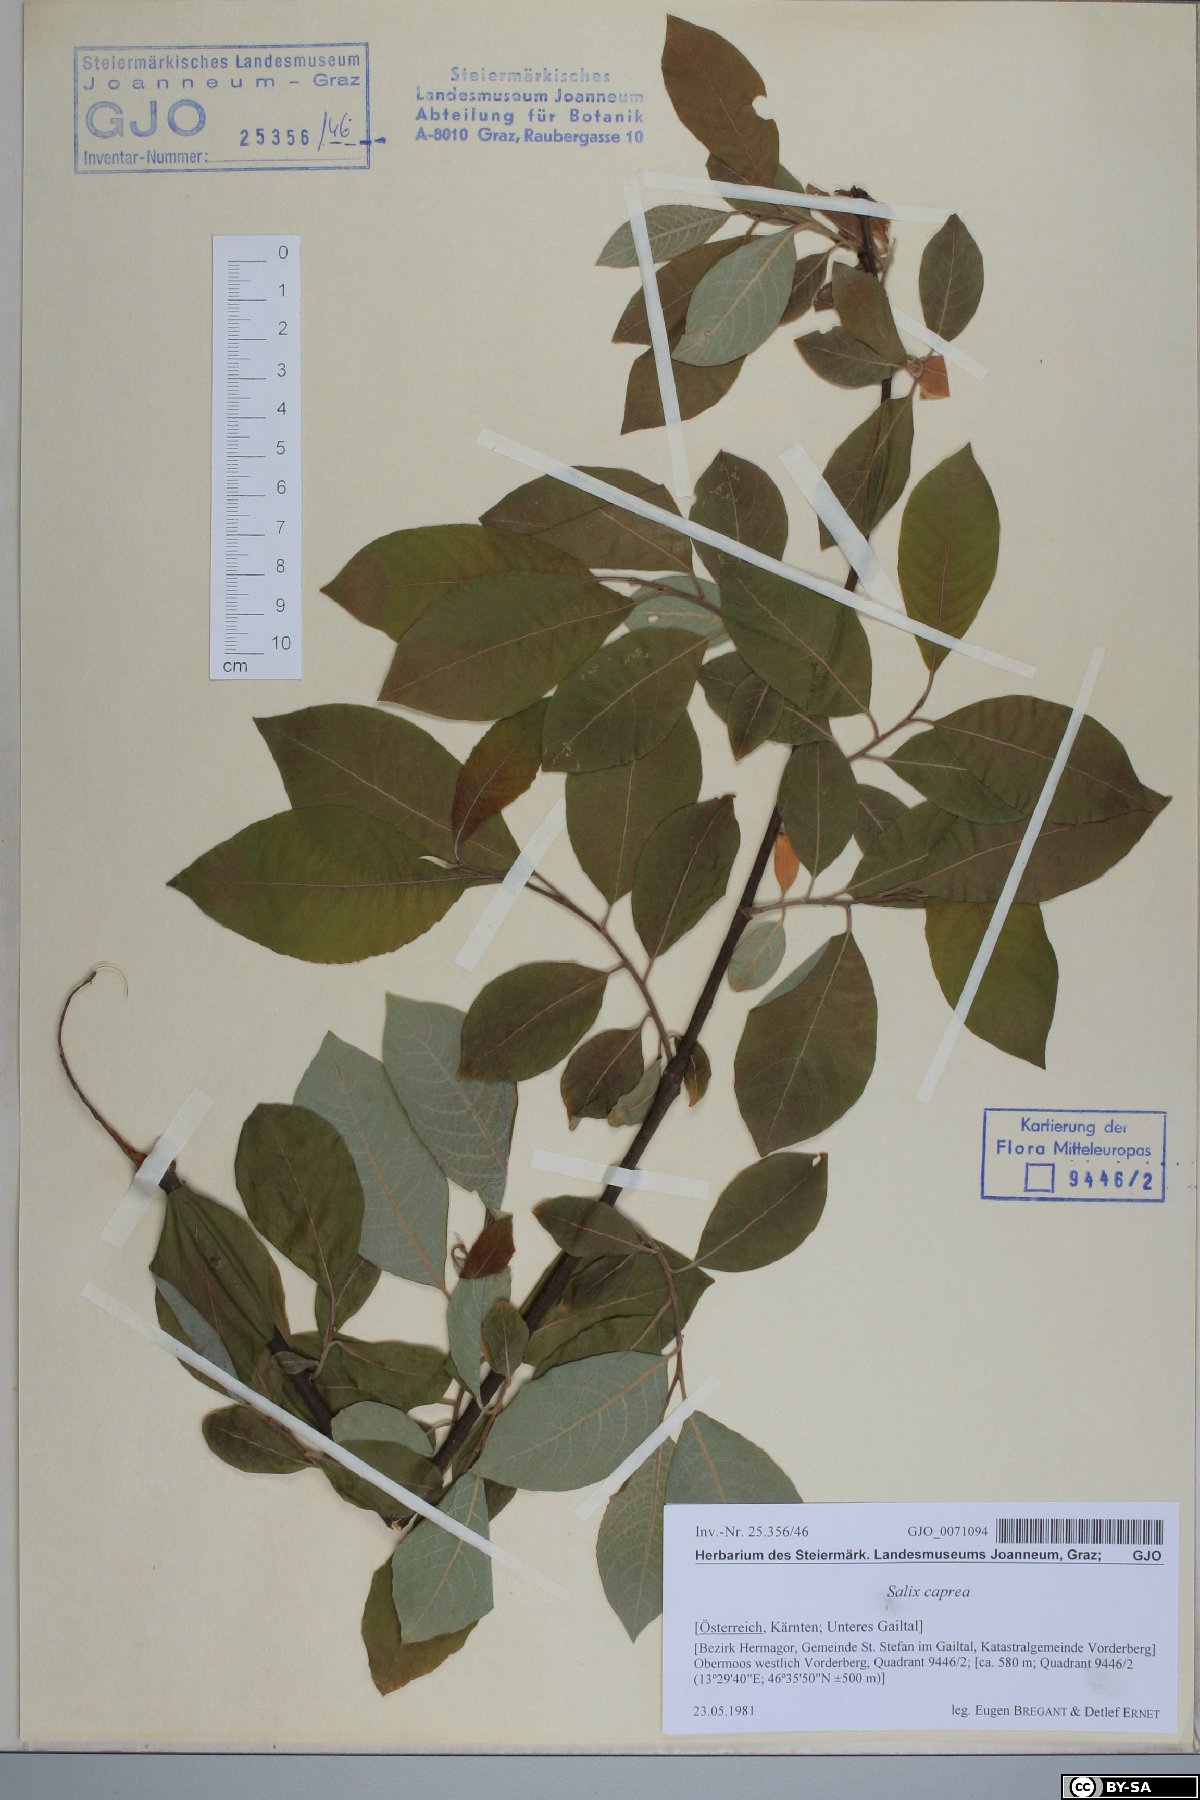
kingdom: Plantae
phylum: Tracheophyta
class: Magnoliopsida
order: Malpighiales
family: Salicaceae
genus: Salix
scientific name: Salix caprea
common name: Goat willow
